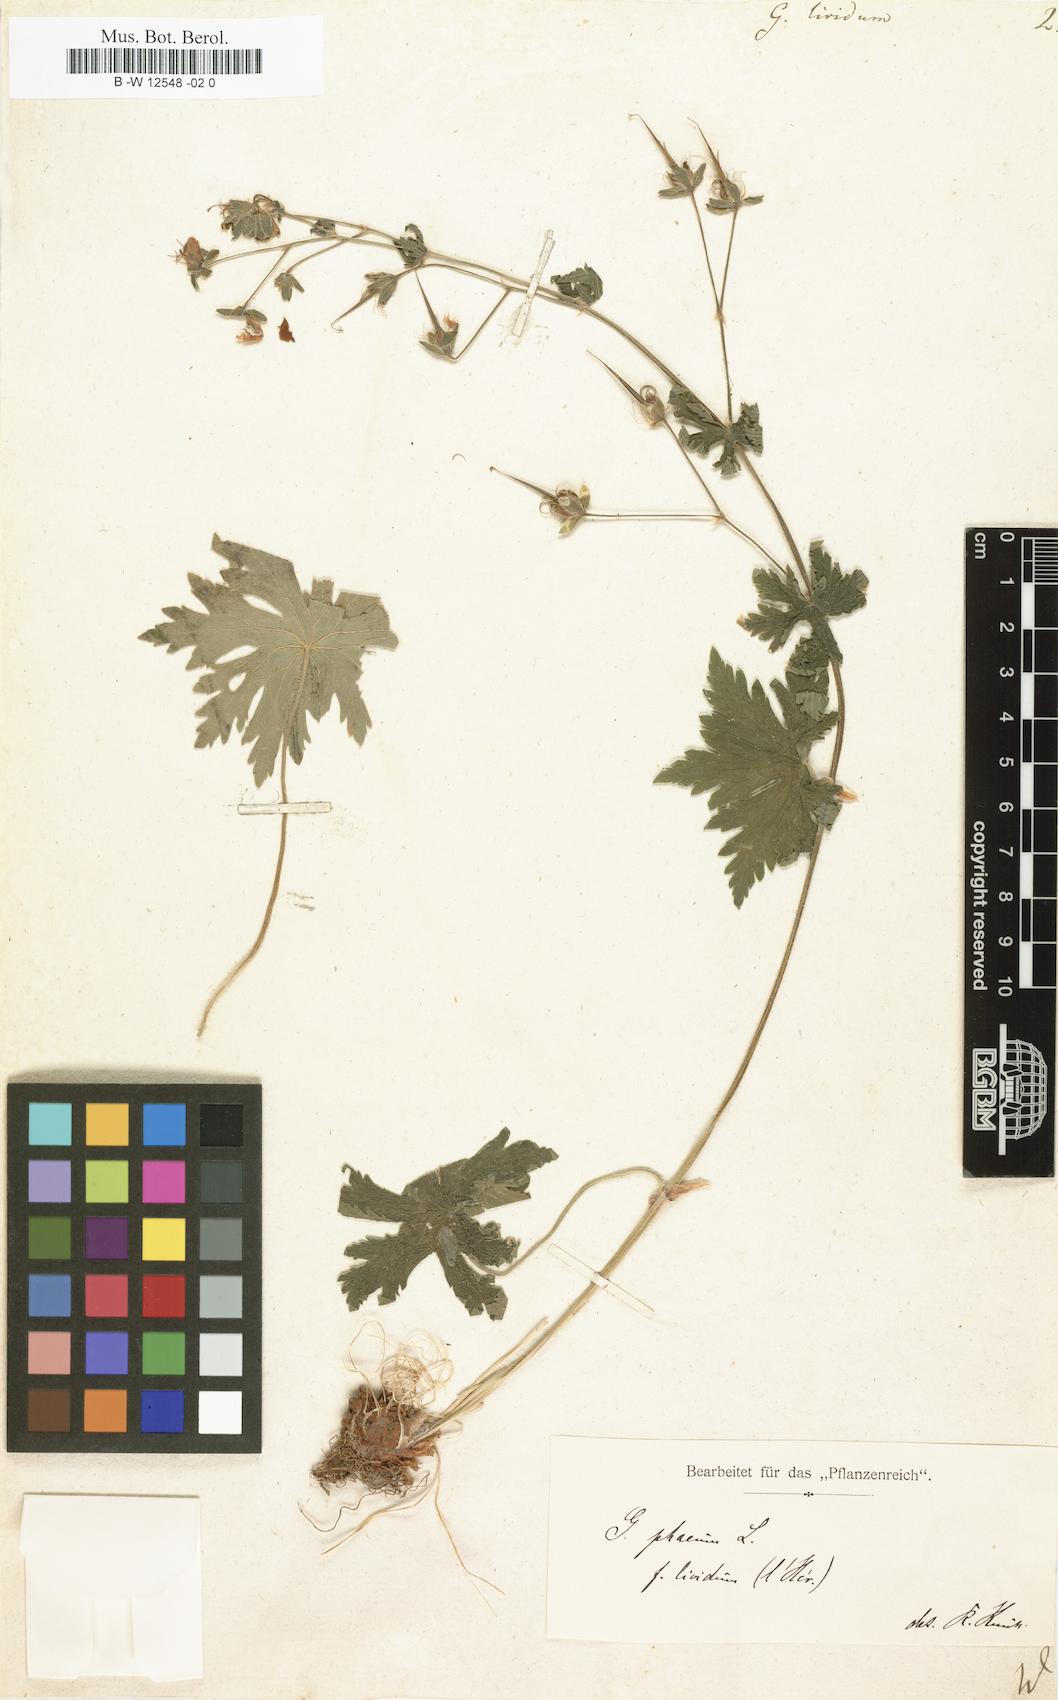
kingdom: Plantae
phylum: Tracheophyta
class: Magnoliopsida
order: Geraniales
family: Geraniaceae
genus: Geranium
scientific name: Geranium phaeum
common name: Dusky crane's-bill
